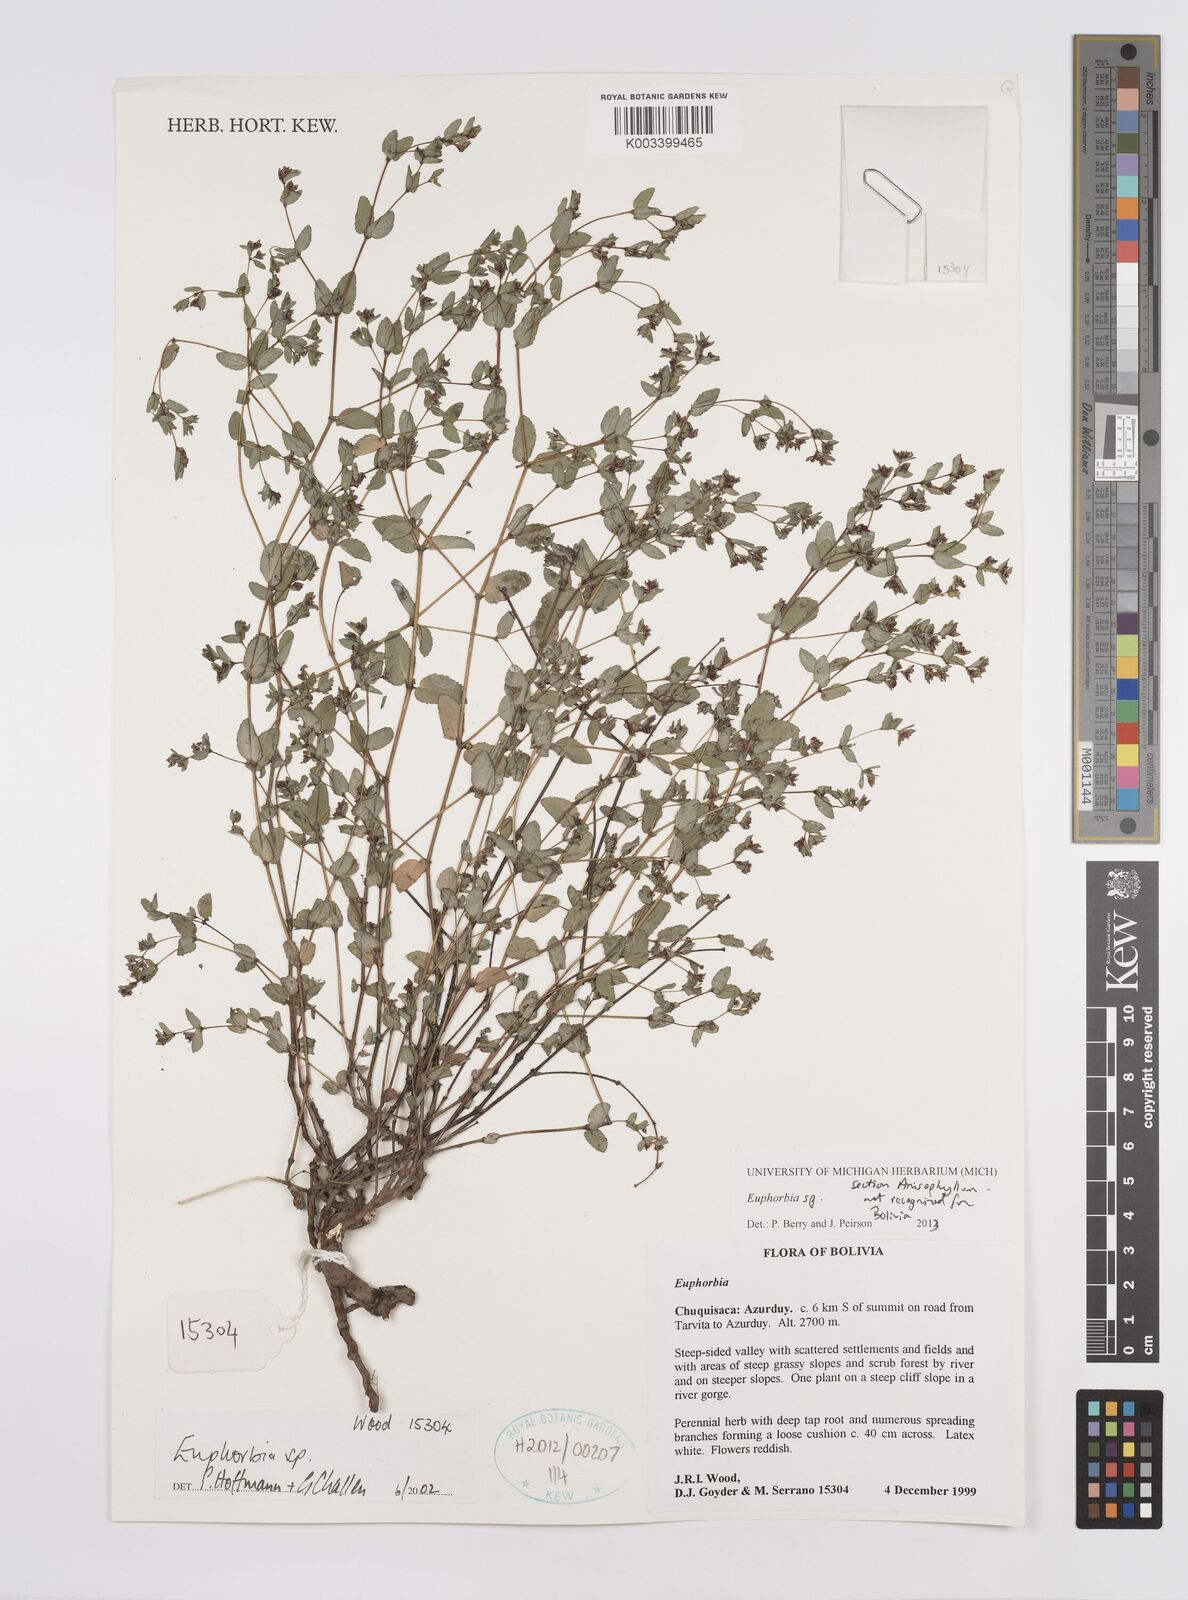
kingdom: Plantae
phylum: Tracheophyta
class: Magnoliopsida
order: Malpighiales
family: Euphorbiaceae
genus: Euphorbia
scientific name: Euphorbia
